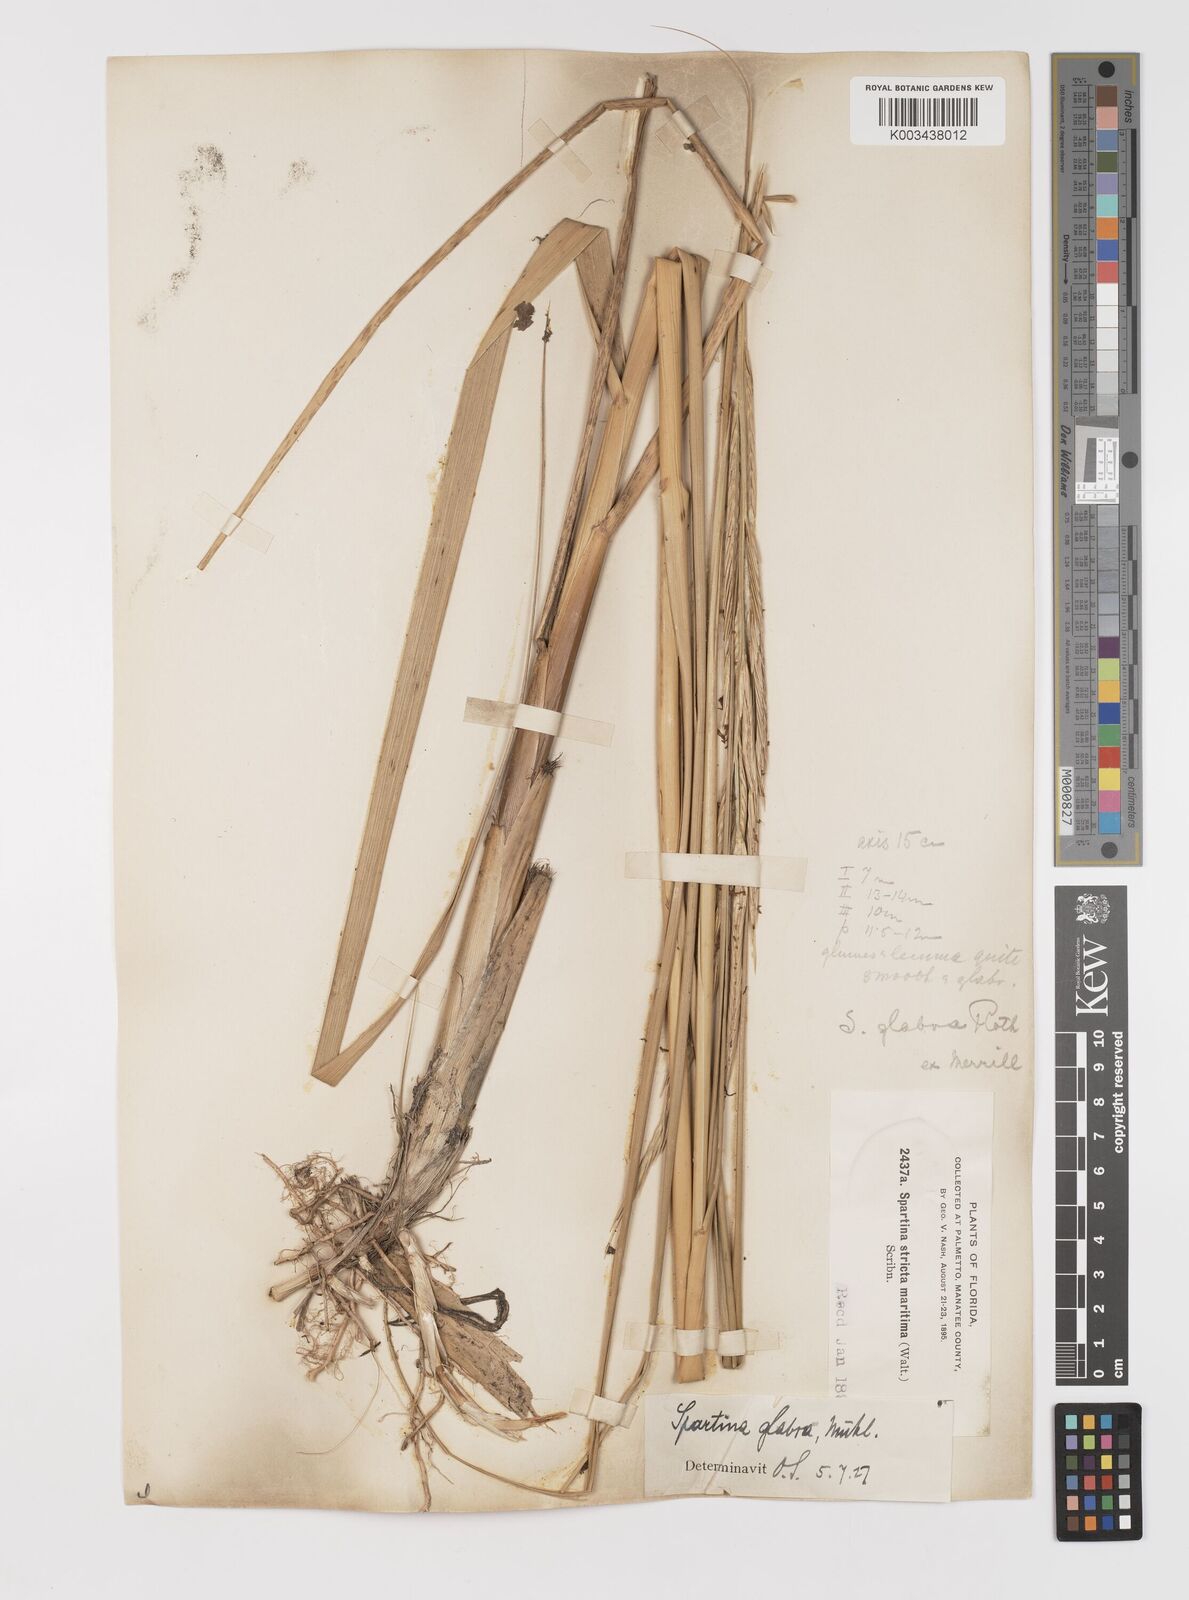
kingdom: Animalia
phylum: Mollusca
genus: Spartina
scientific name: Spartina
